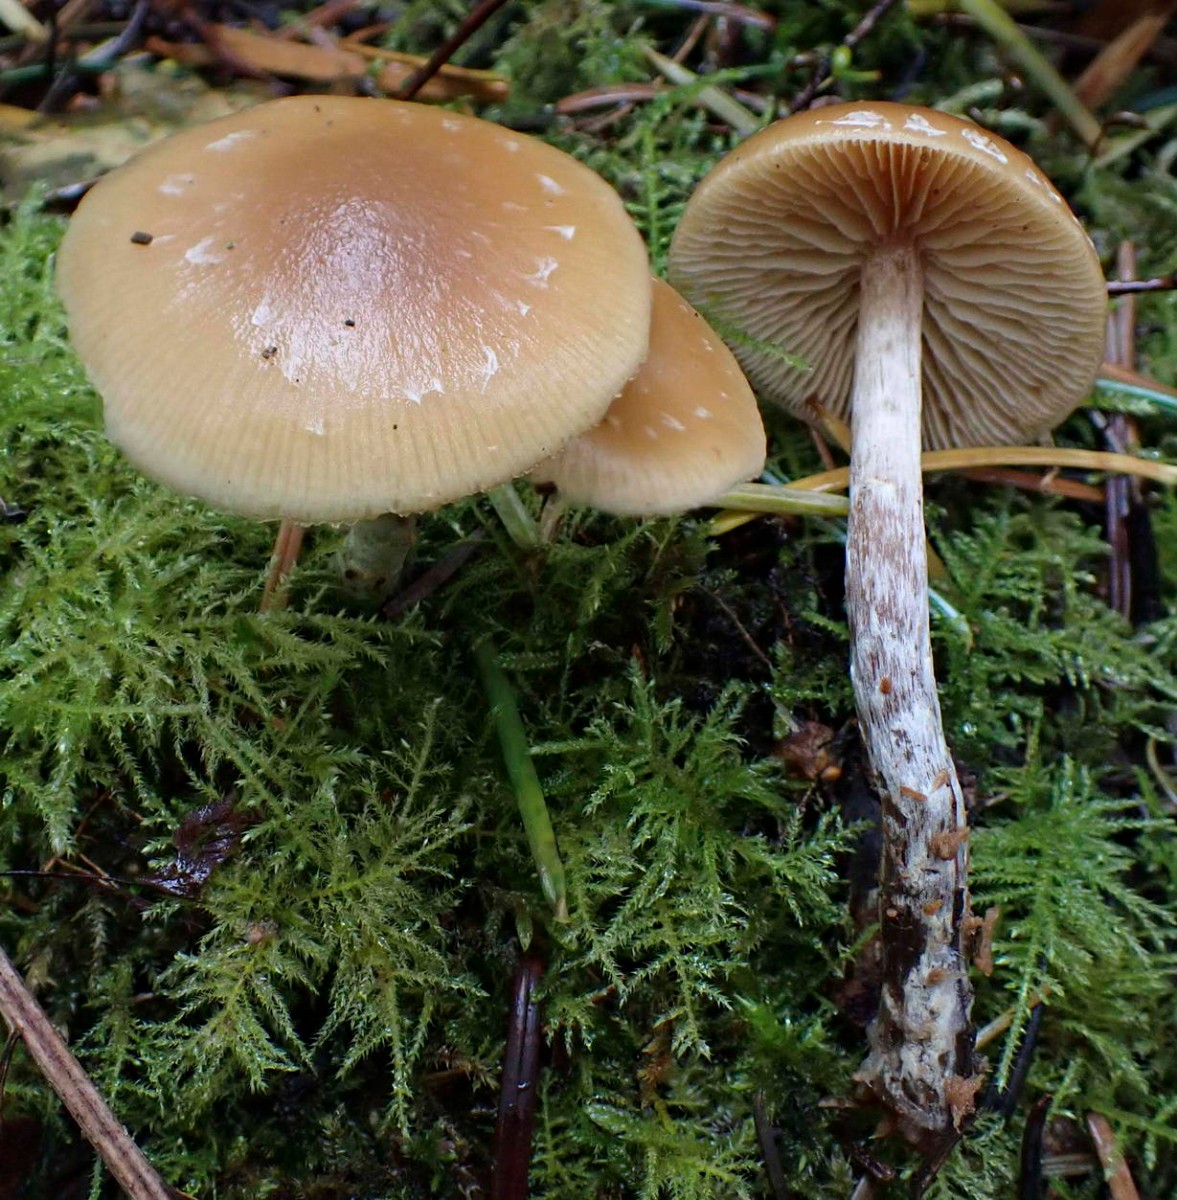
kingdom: Fungi
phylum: Basidiomycota
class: Agaricomycetes
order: Agaricales
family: Hymenogastraceae
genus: Galerina
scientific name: Galerina sideroides
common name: træflis-hjelmhat
